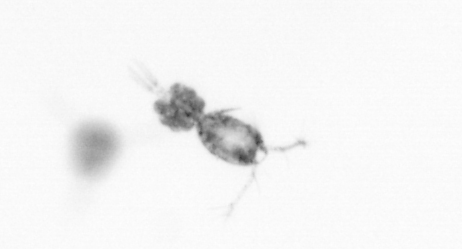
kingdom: Animalia
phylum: Arthropoda
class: Copepoda
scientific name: Copepoda
